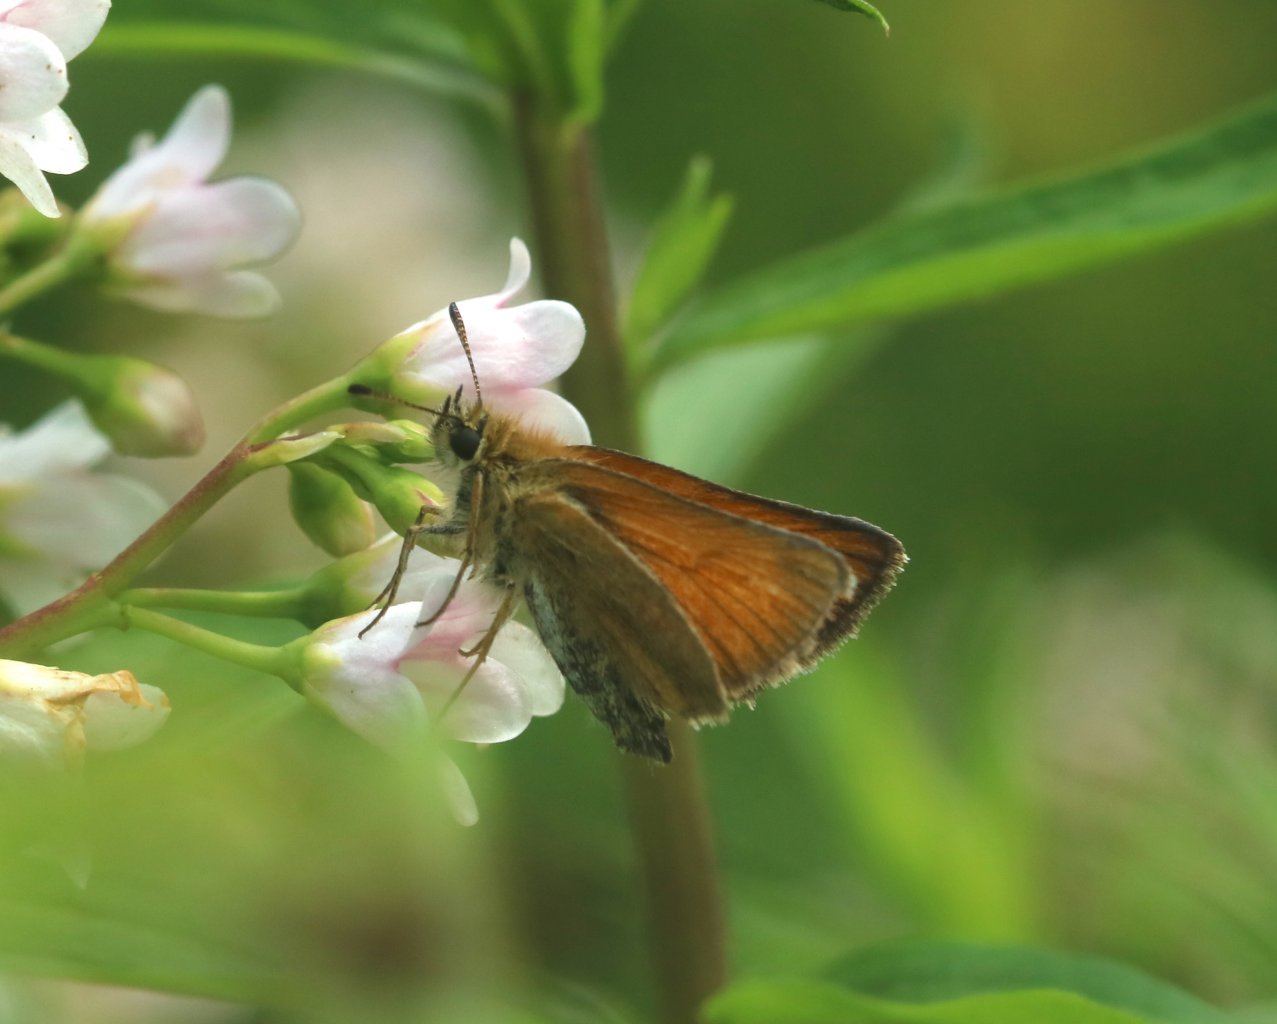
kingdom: Animalia
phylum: Arthropoda
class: Insecta
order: Lepidoptera
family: Hesperiidae
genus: Thymelicus
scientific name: Thymelicus lineola
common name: European Skipper
